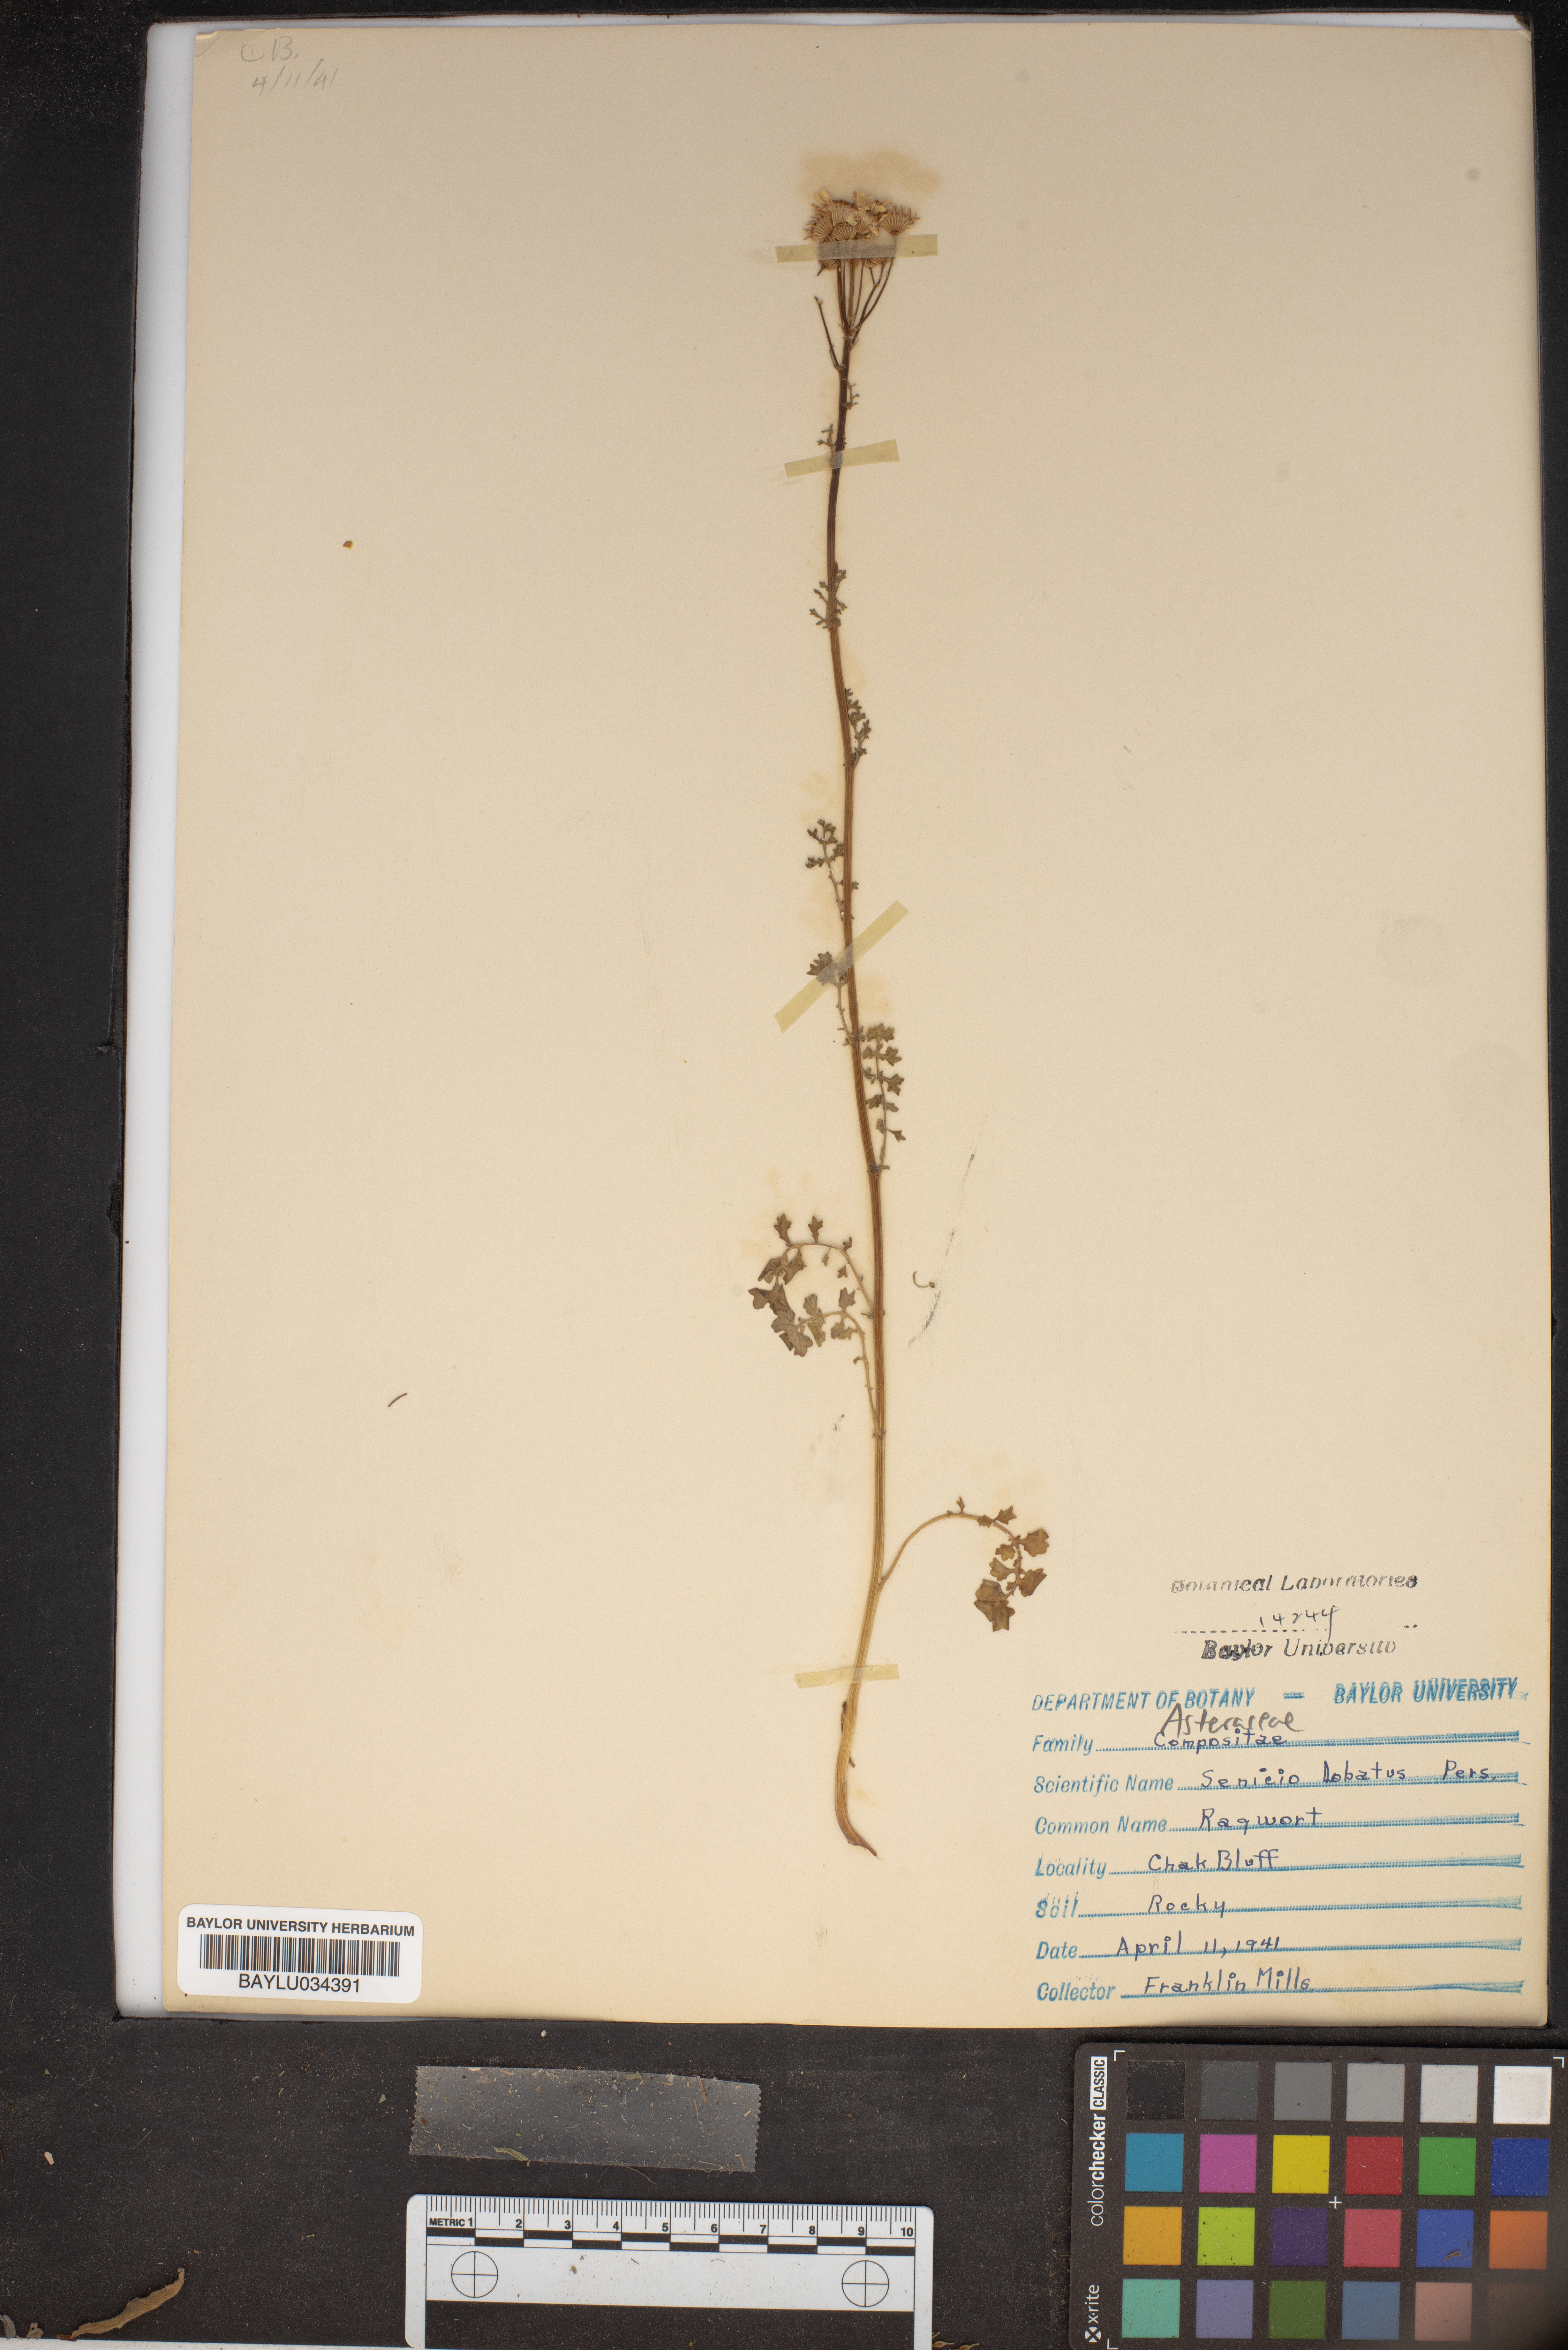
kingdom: Plantae
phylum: Tracheophyta
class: Magnoliopsida
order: Asterales
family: Asteraceae
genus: Packera
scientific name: Packera glabella
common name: Butterweed
